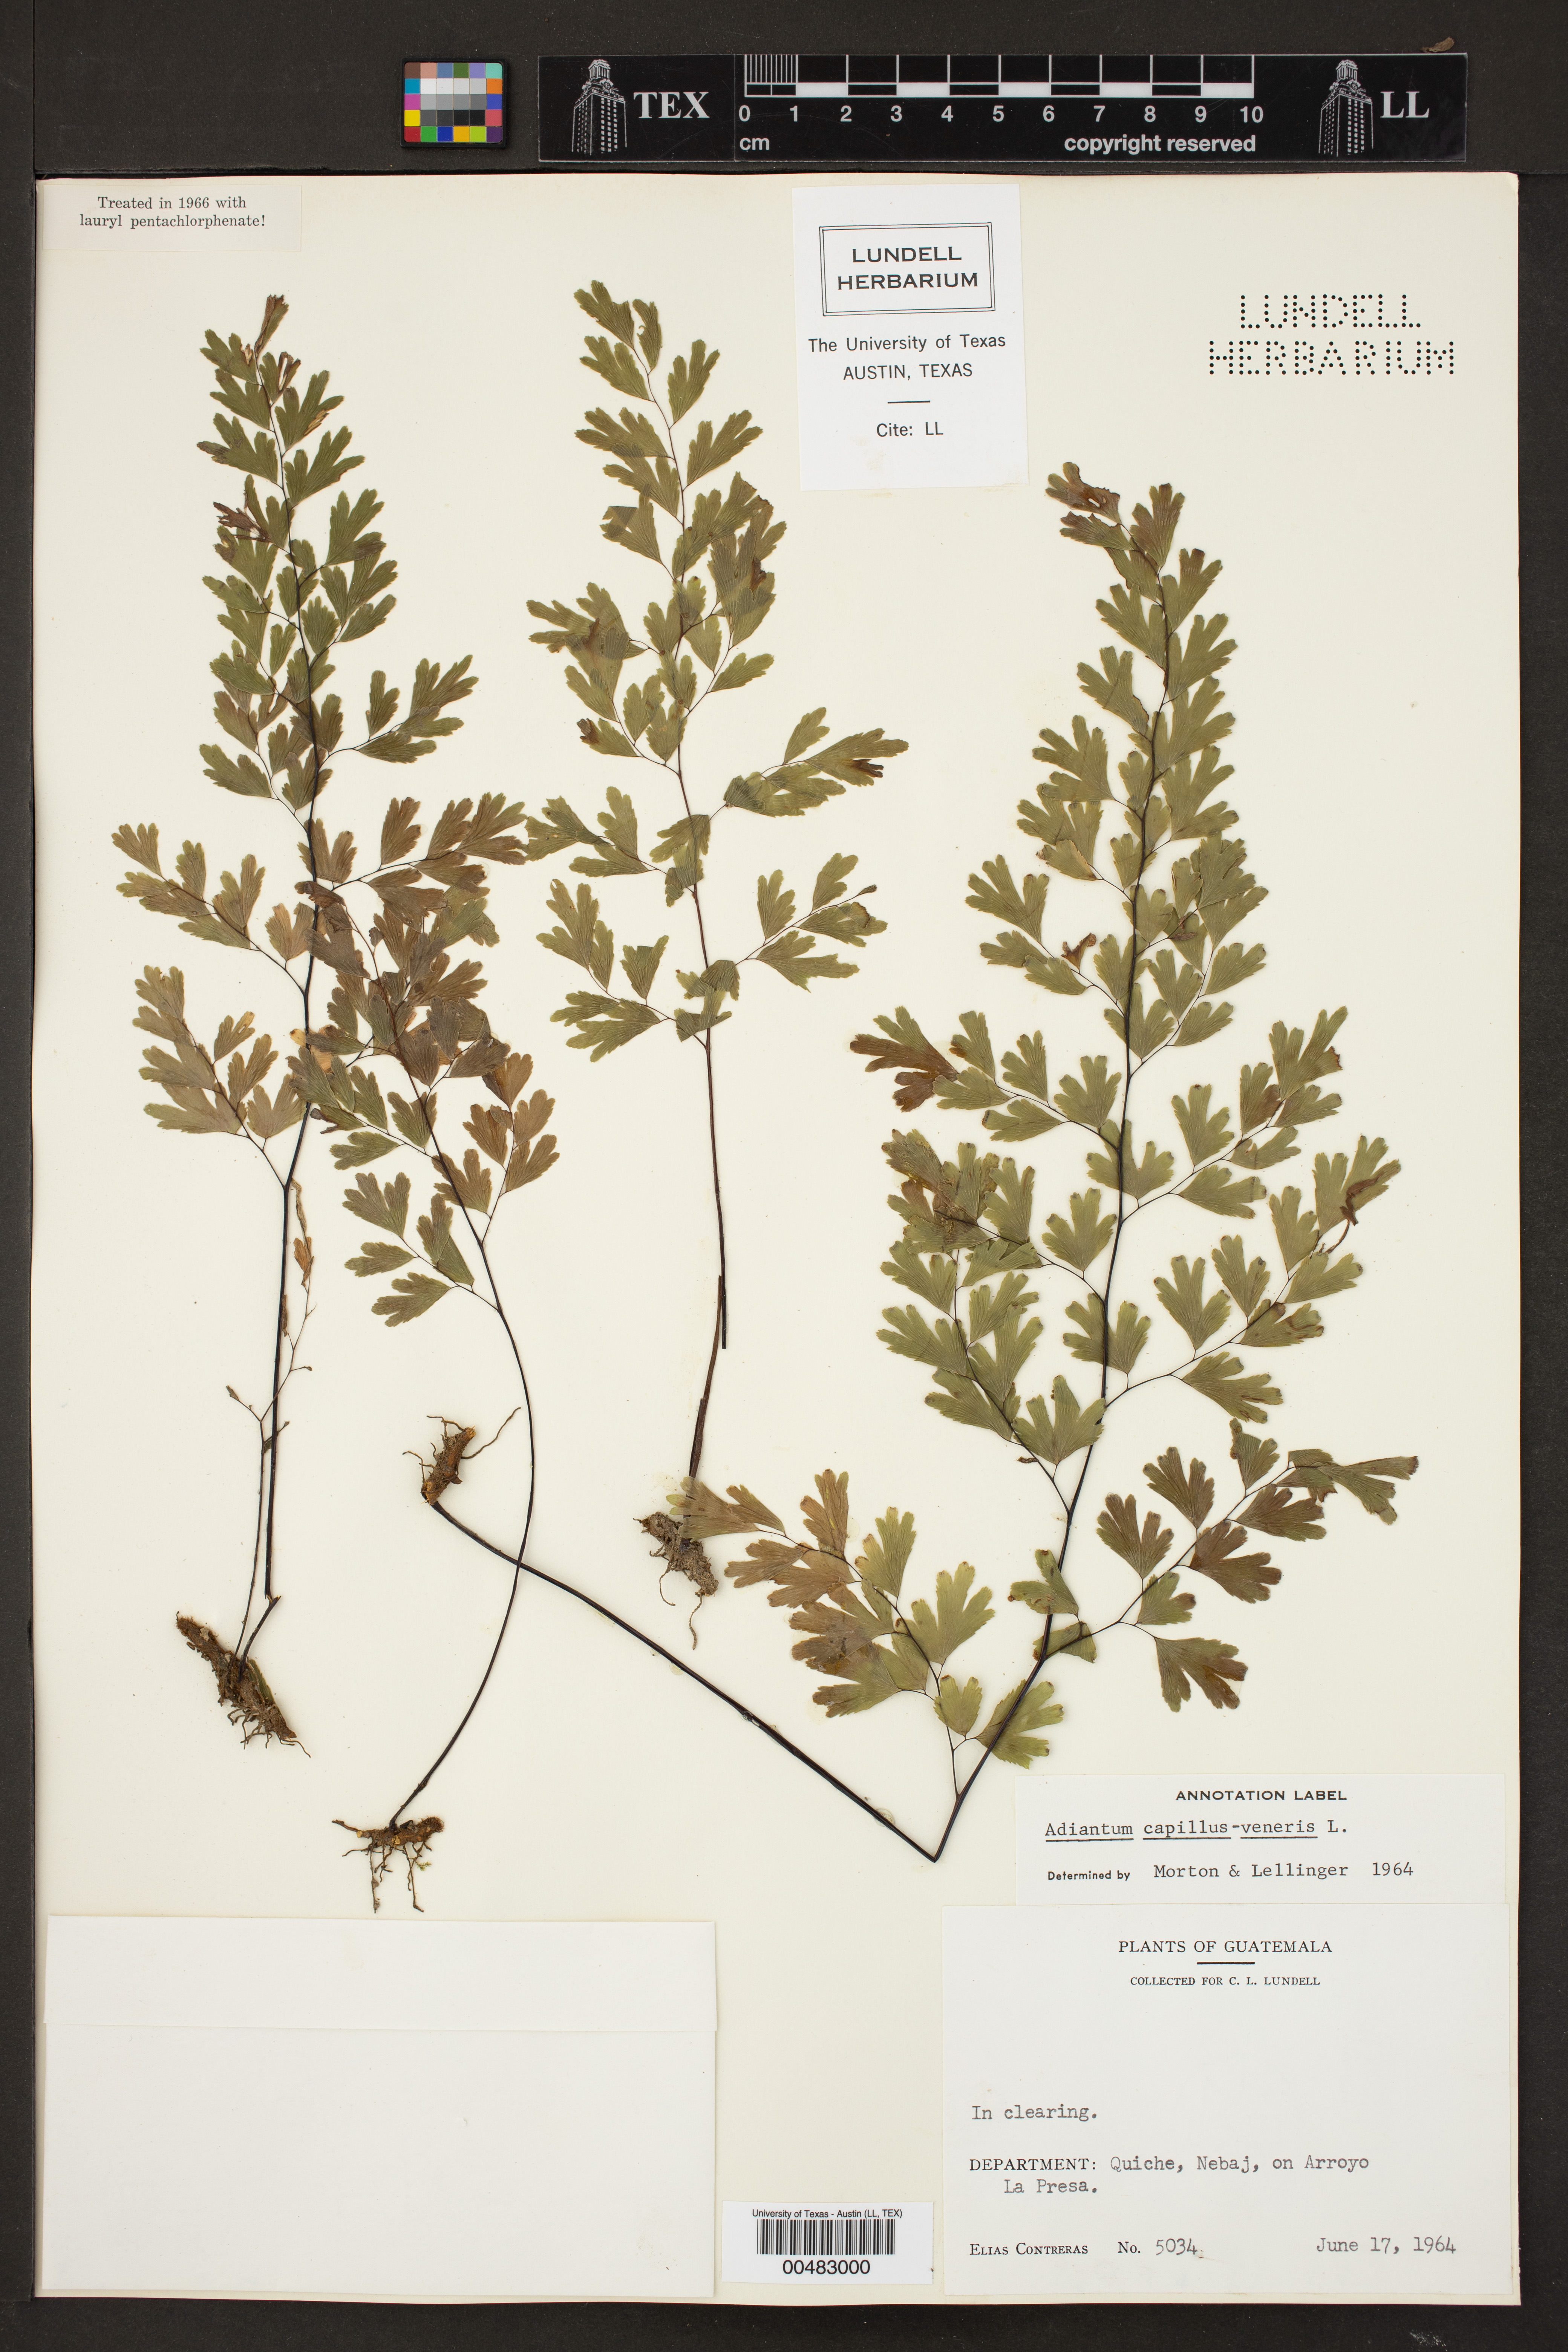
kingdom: Plantae
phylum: Tracheophyta
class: Polypodiopsida
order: Polypodiales
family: Pteridaceae
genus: Adiantum
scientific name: Adiantum capillus-veneris
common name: Maidenhair fern
